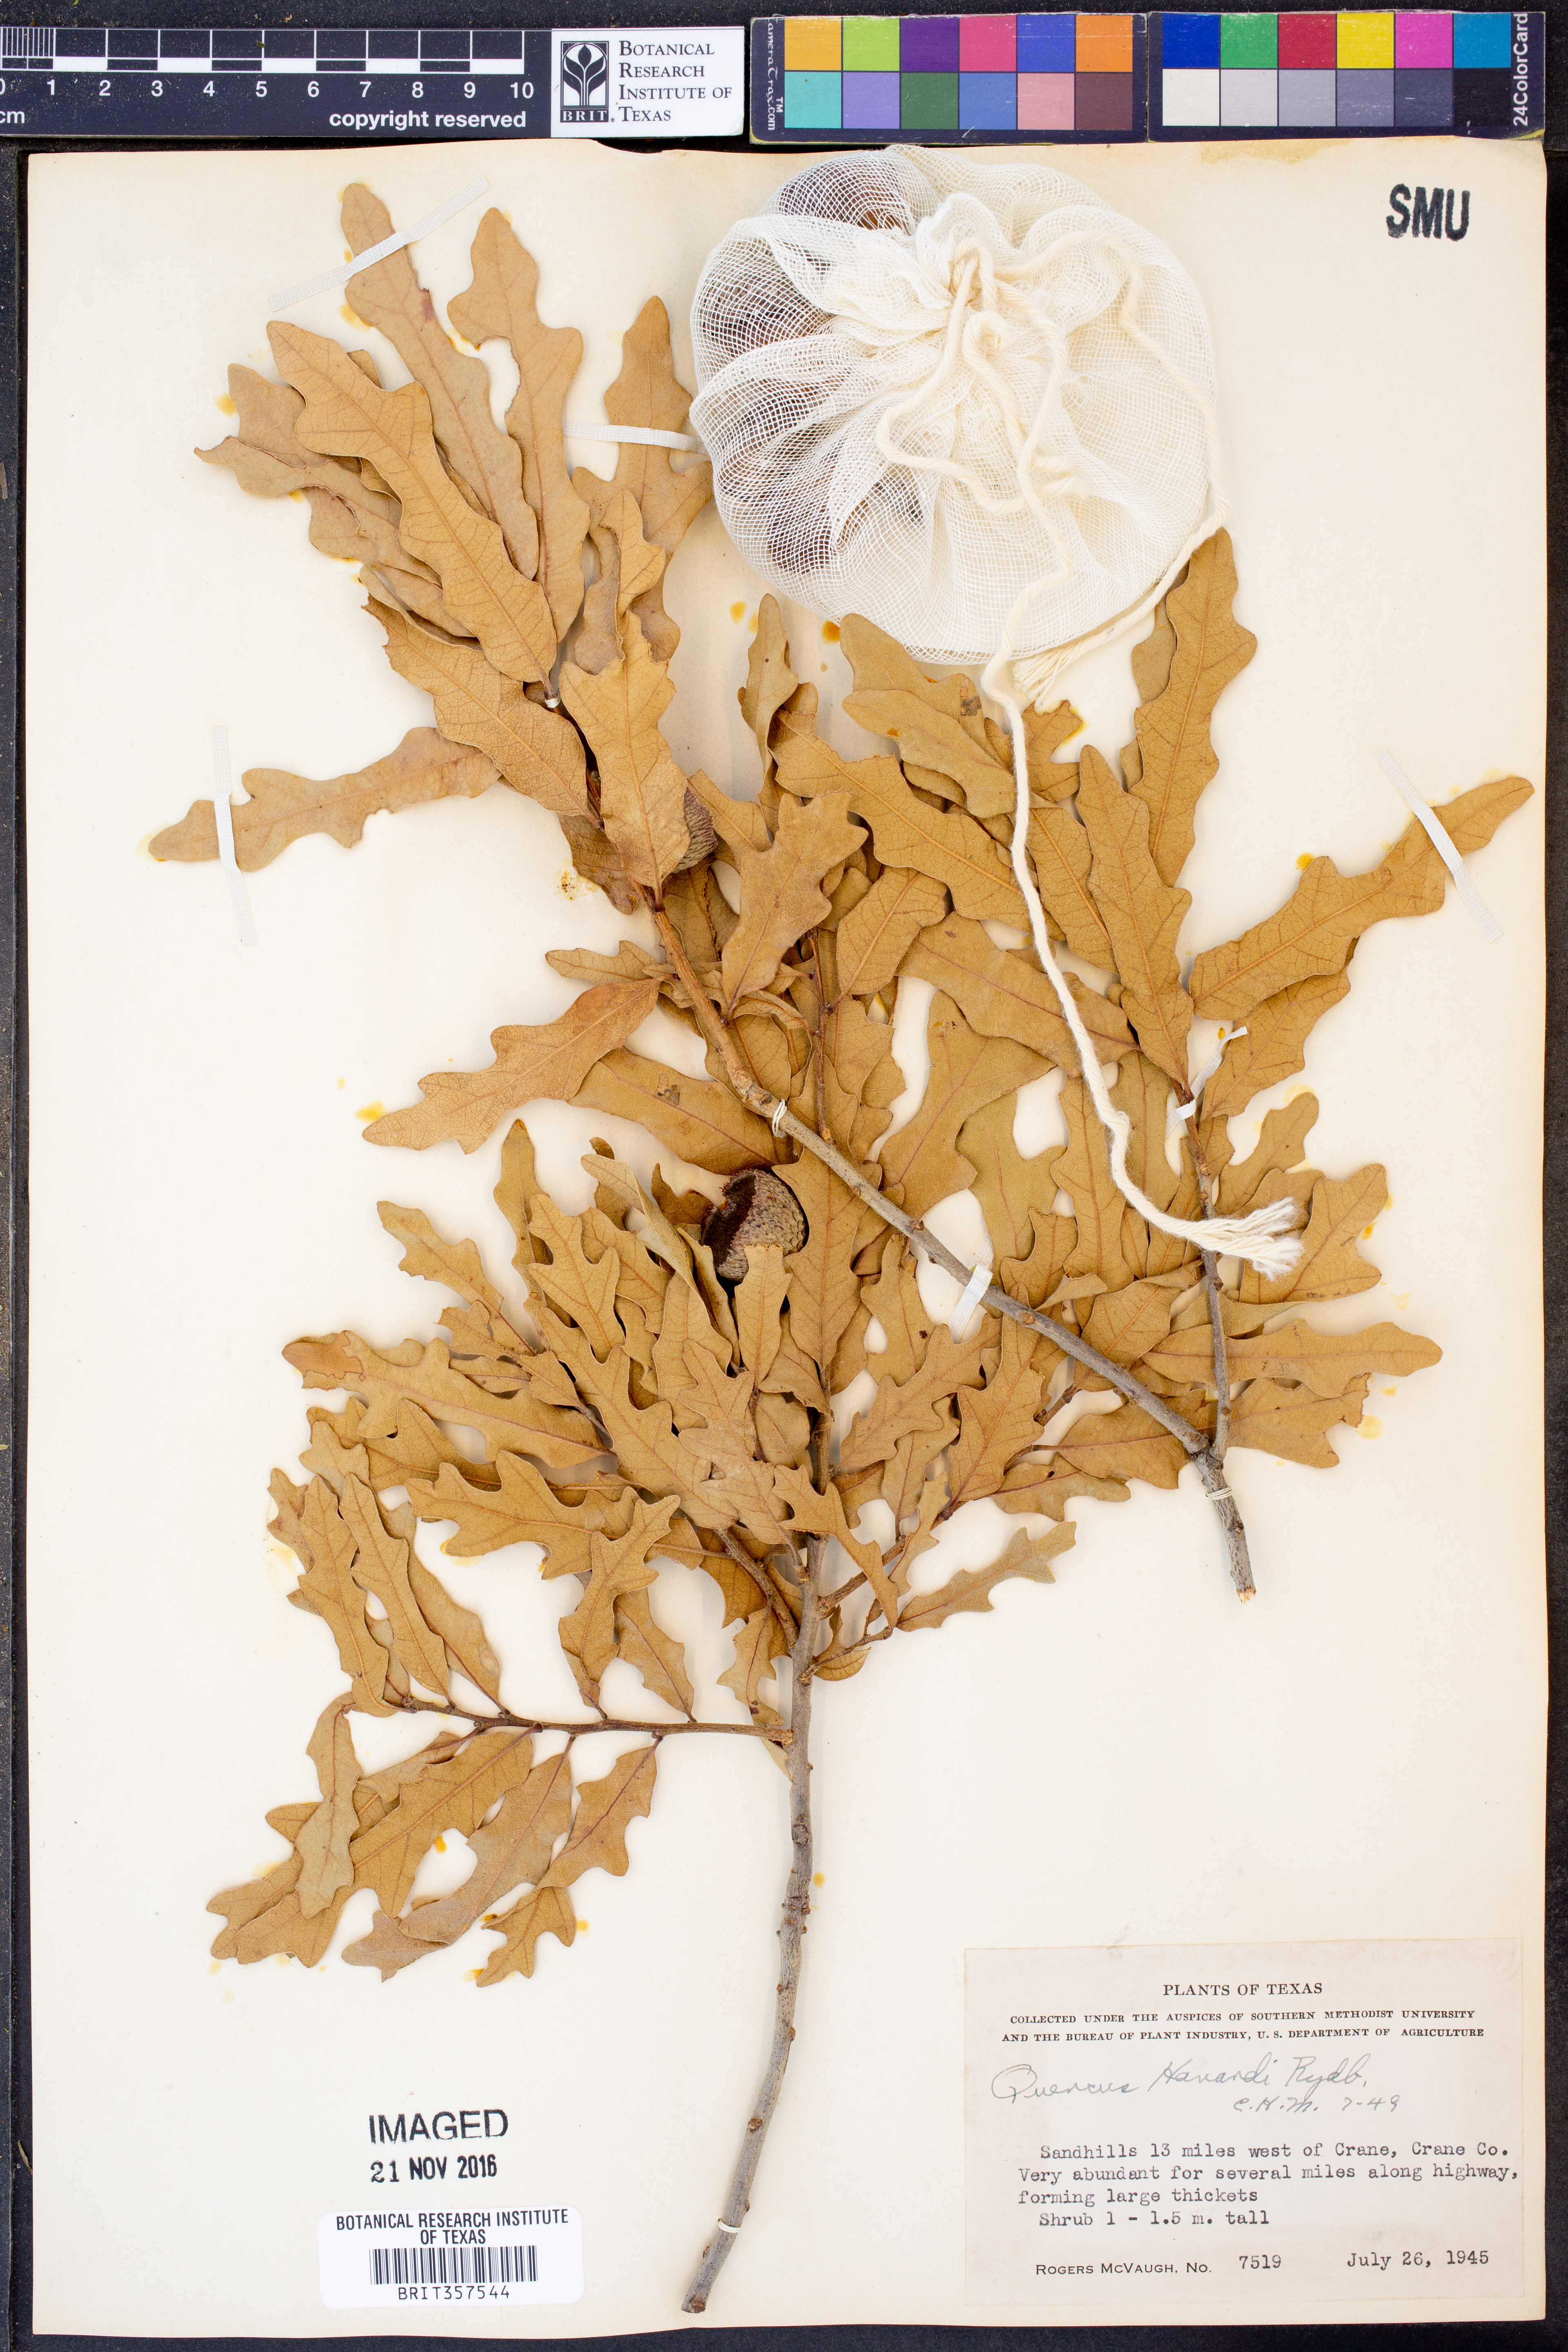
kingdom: Plantae
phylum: Tracheophyta
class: Magnoliopsida
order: Fagales
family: Fagaceae
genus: Quercus
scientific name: Quercus havardii
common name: Shinnery oak
